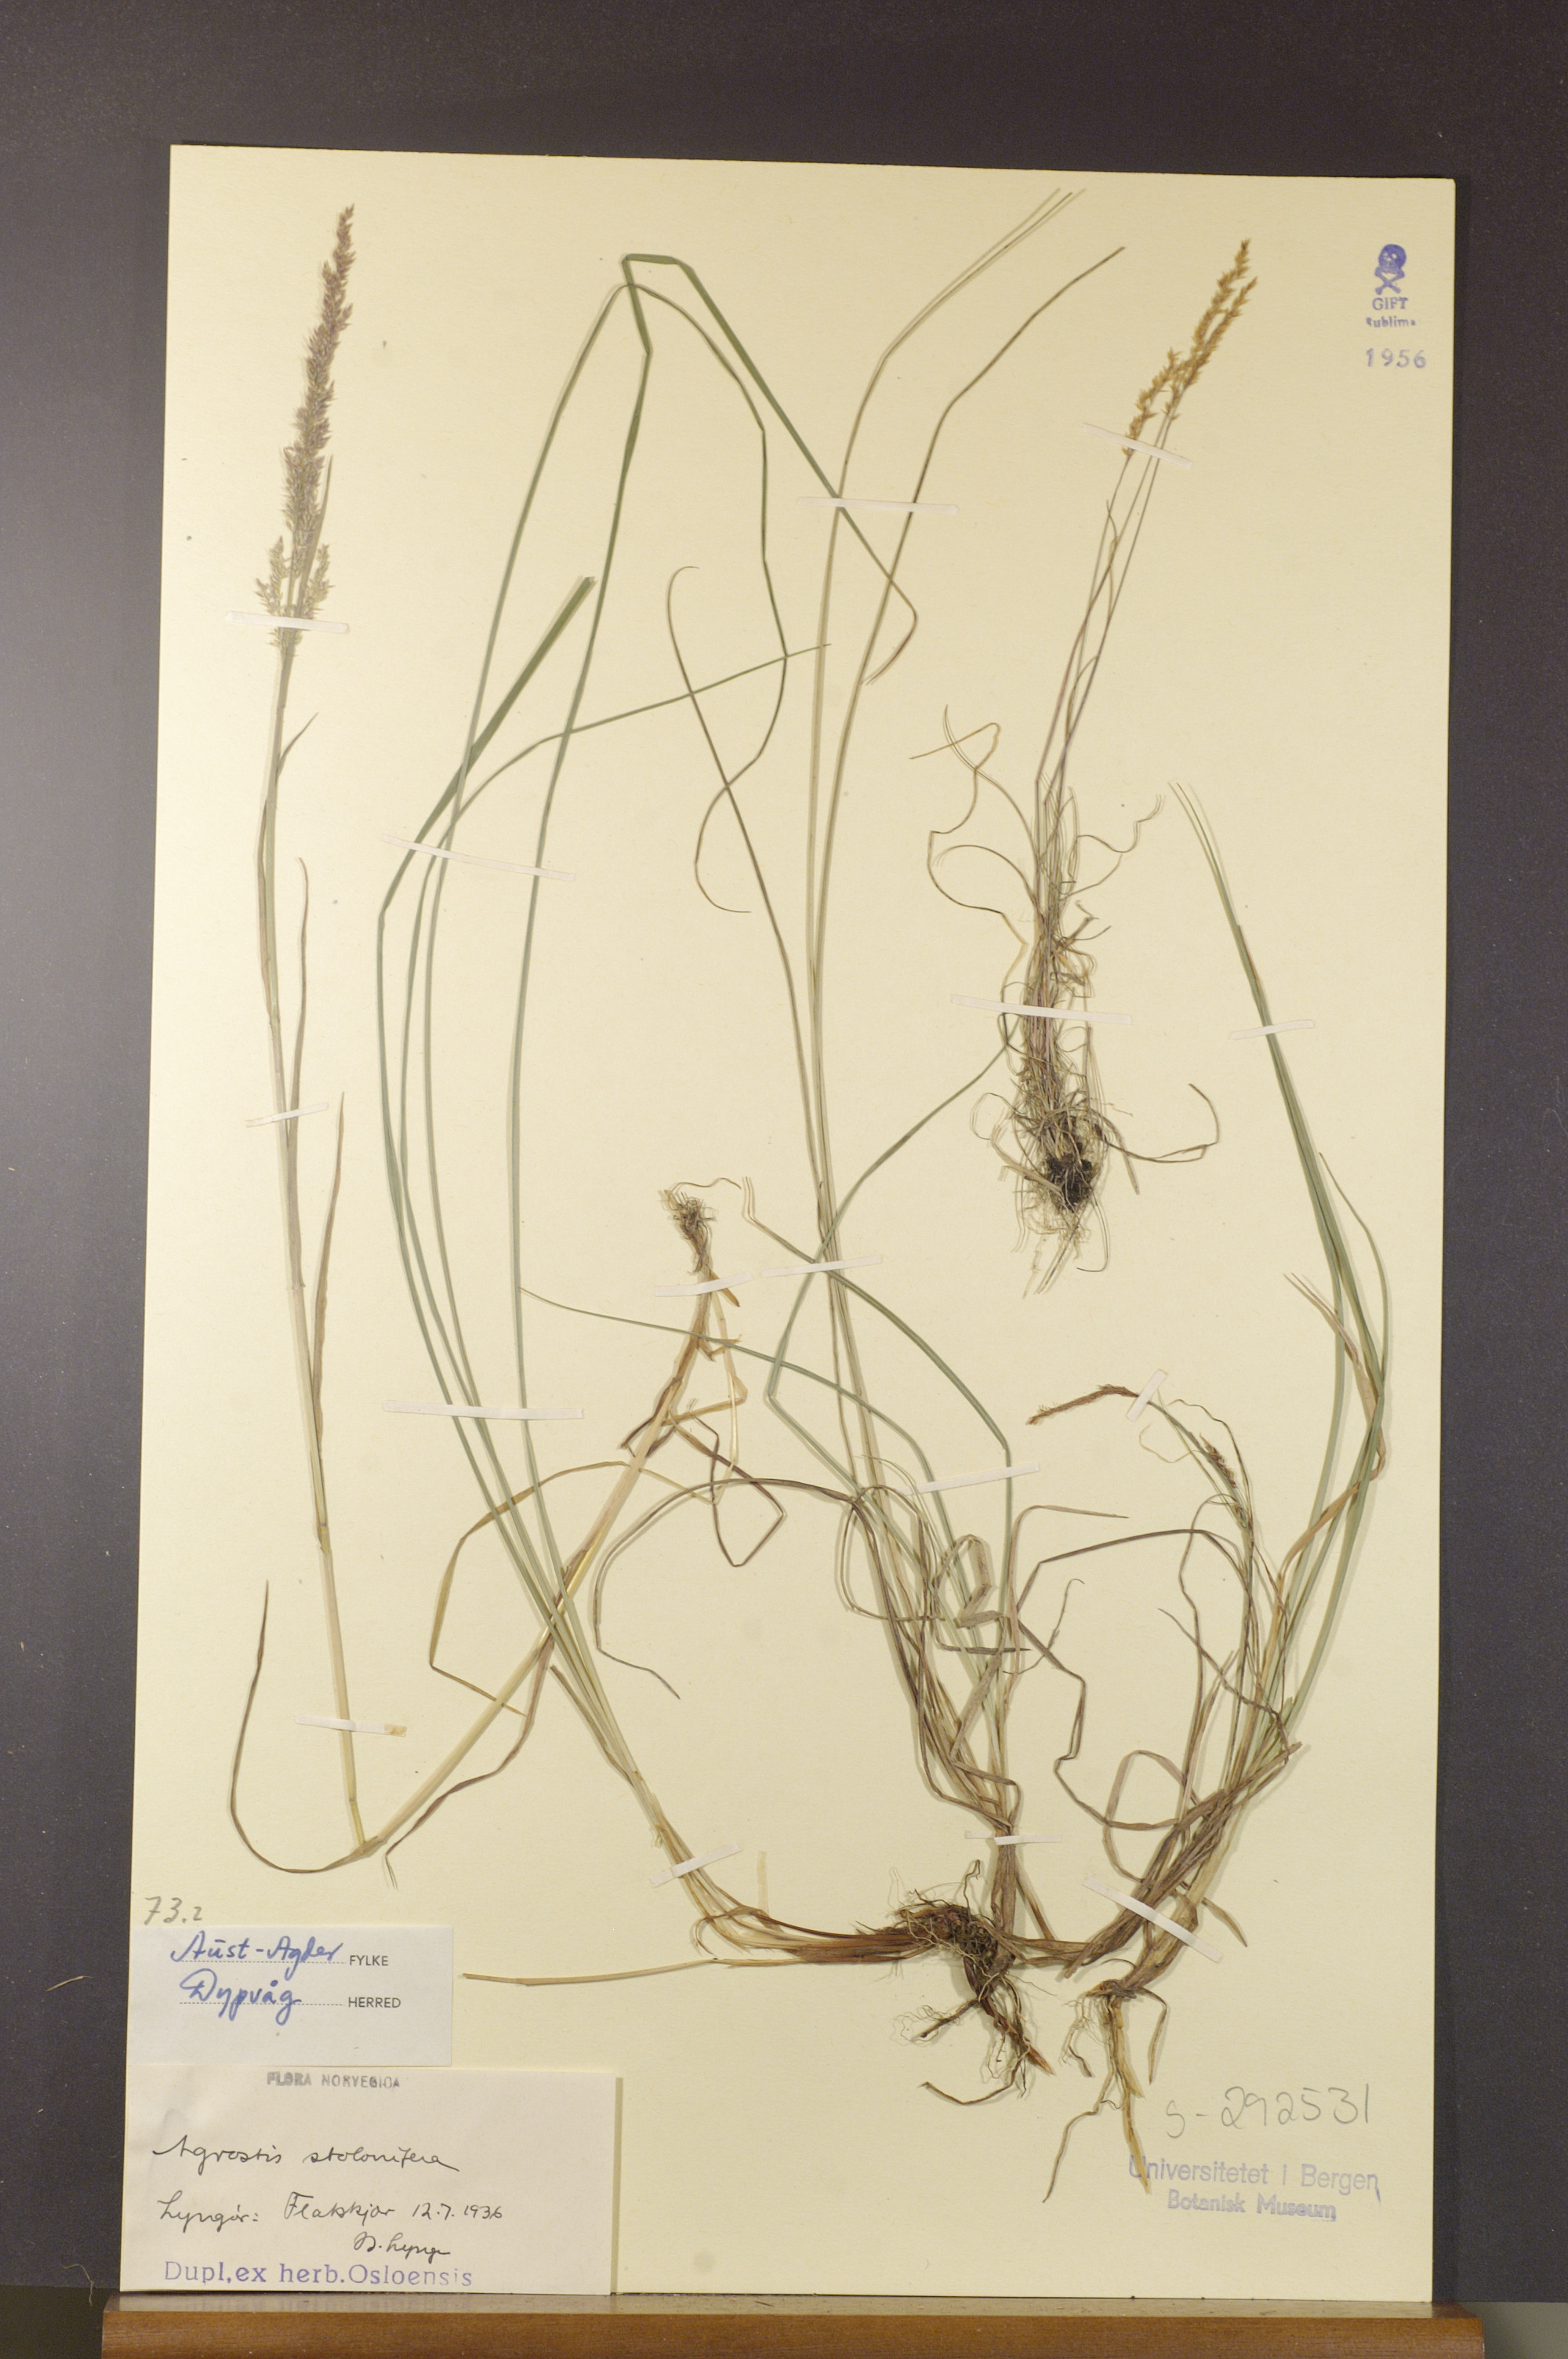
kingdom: Plantae
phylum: Tracheophyta
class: Liliopsida
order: Poales
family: Poaceae
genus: Agrostis
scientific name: Agrostis stolonifera
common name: Creeping bentgrass
